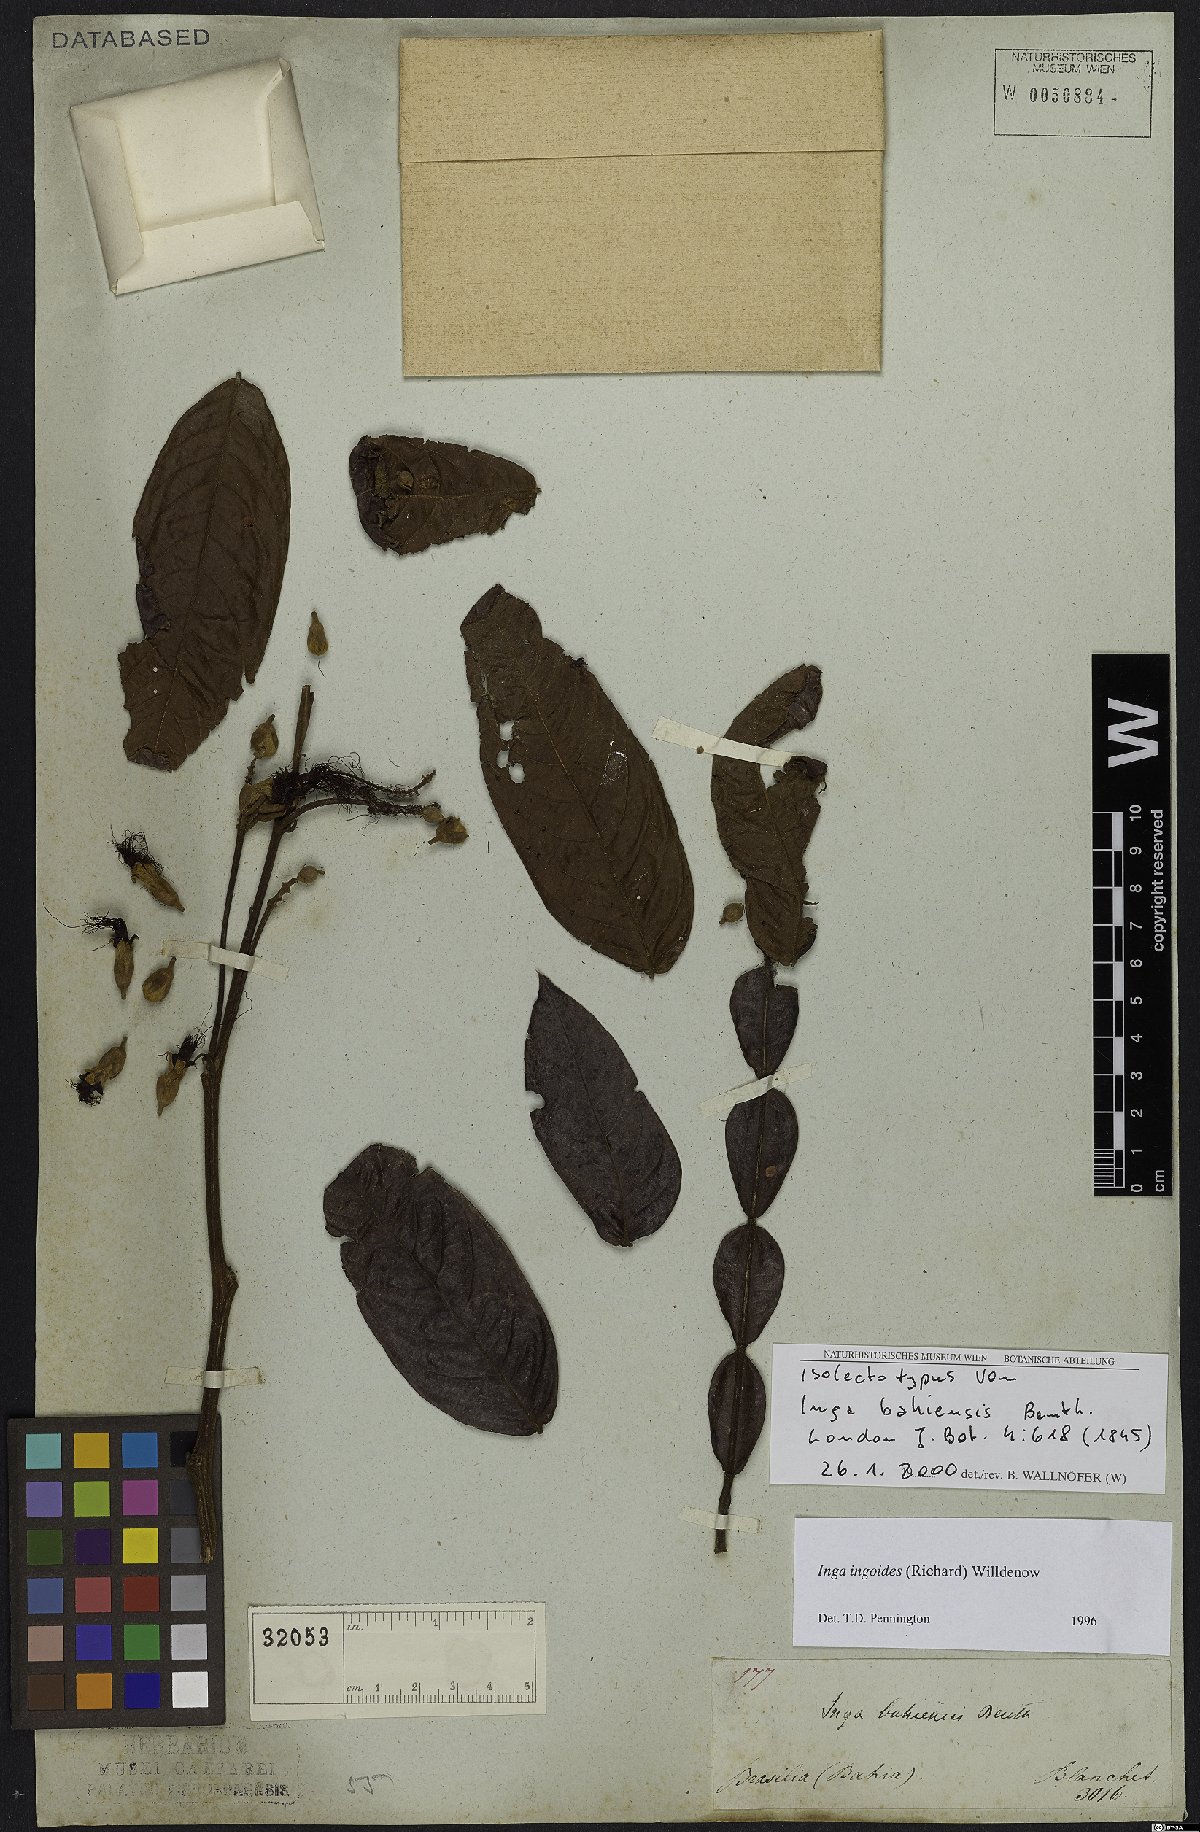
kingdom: Plantae
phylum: Tracheophyta
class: Magnoliopsida
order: Fabales
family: Fabaceae
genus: Inga
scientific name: Inga ingoides
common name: Spanish ash
